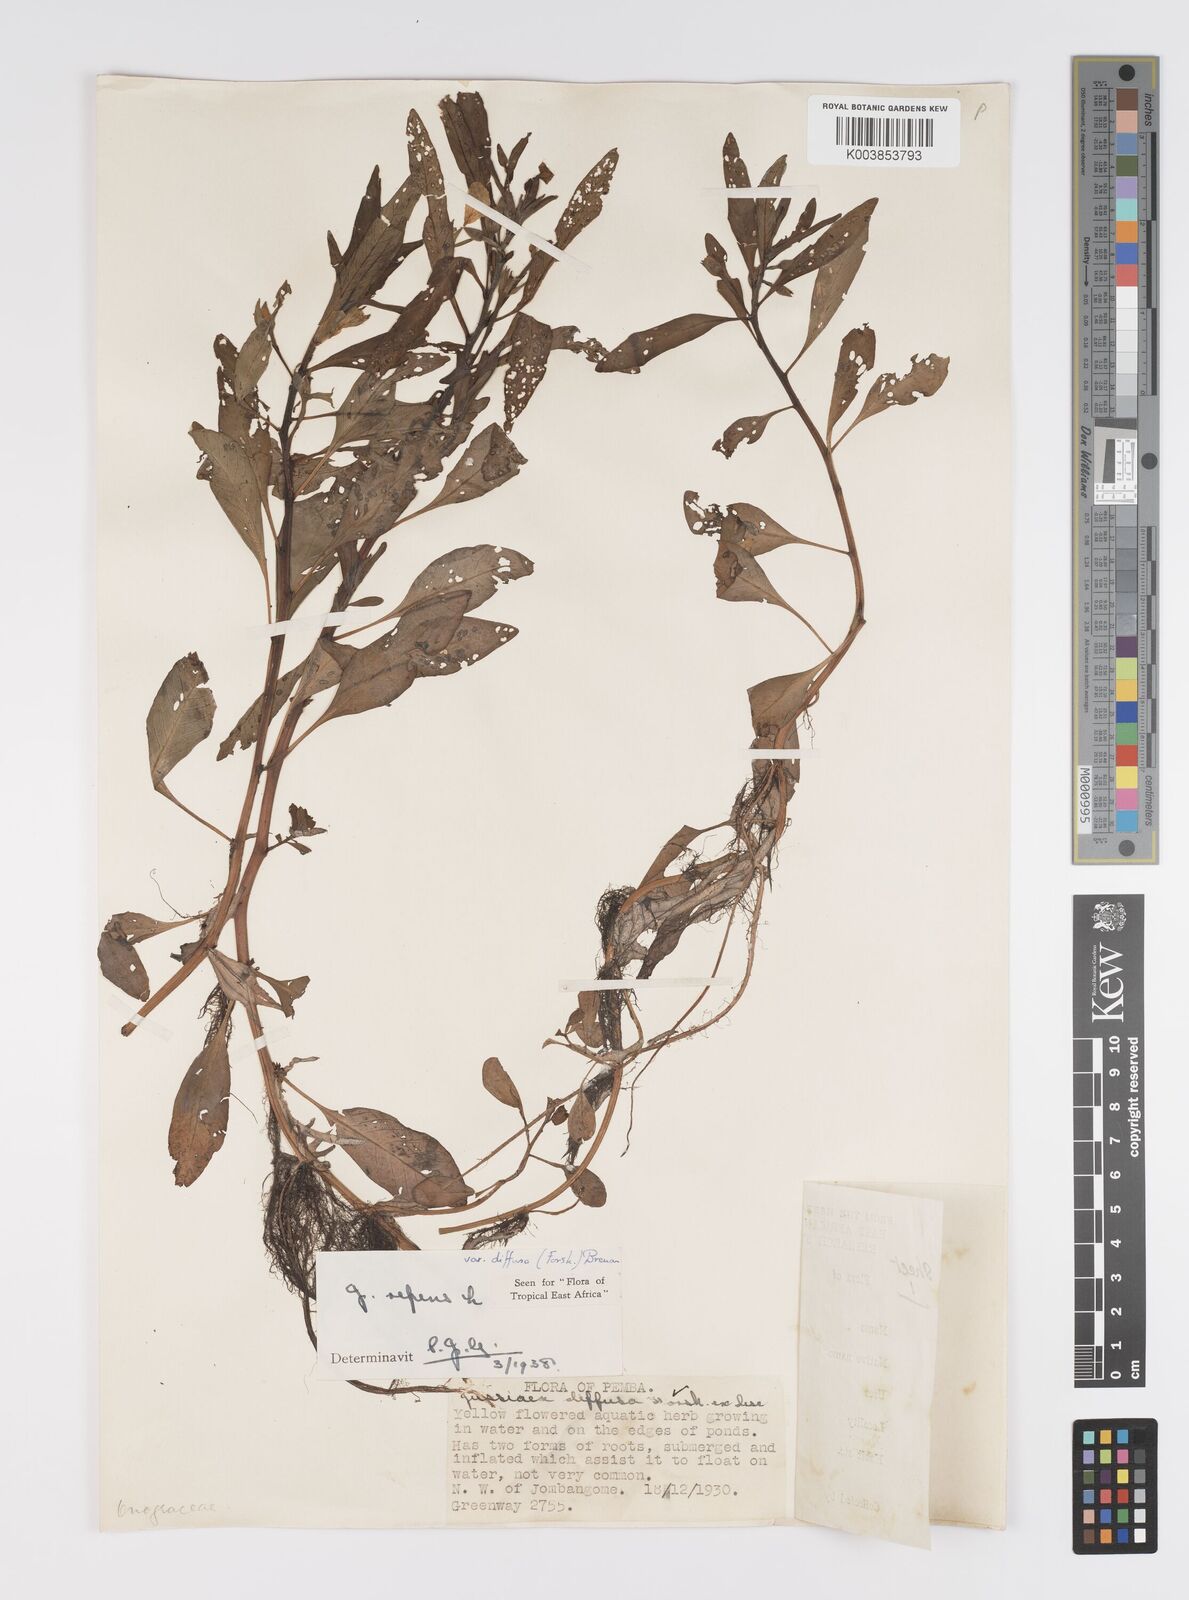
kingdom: Plantae
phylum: Tracheophyta
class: Magnoliopsida
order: Myrtales
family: Onagraceae
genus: Ludwigia
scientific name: Ludwigia repens
